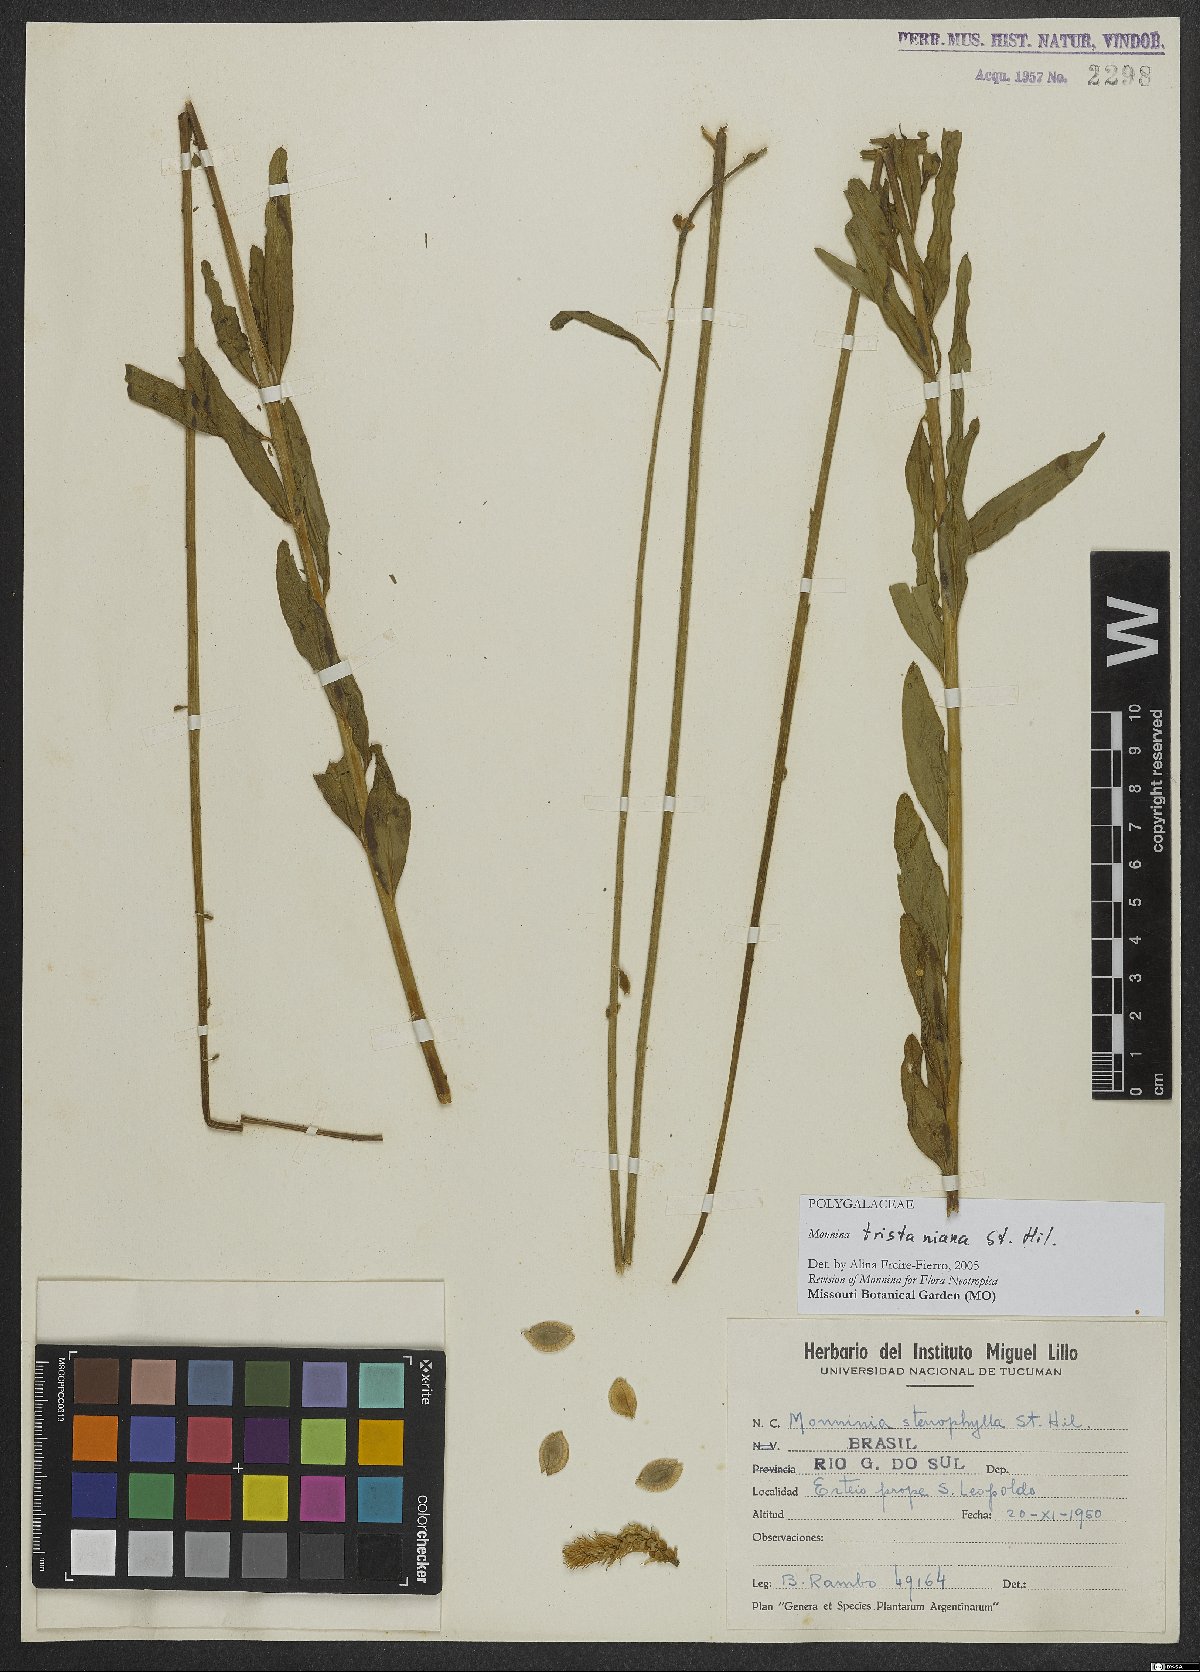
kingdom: Plantae
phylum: Tracheophyta
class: Magnoliopsida
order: Fabales
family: Polygalaceae
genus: Monnina
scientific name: Monnina tristaniana
